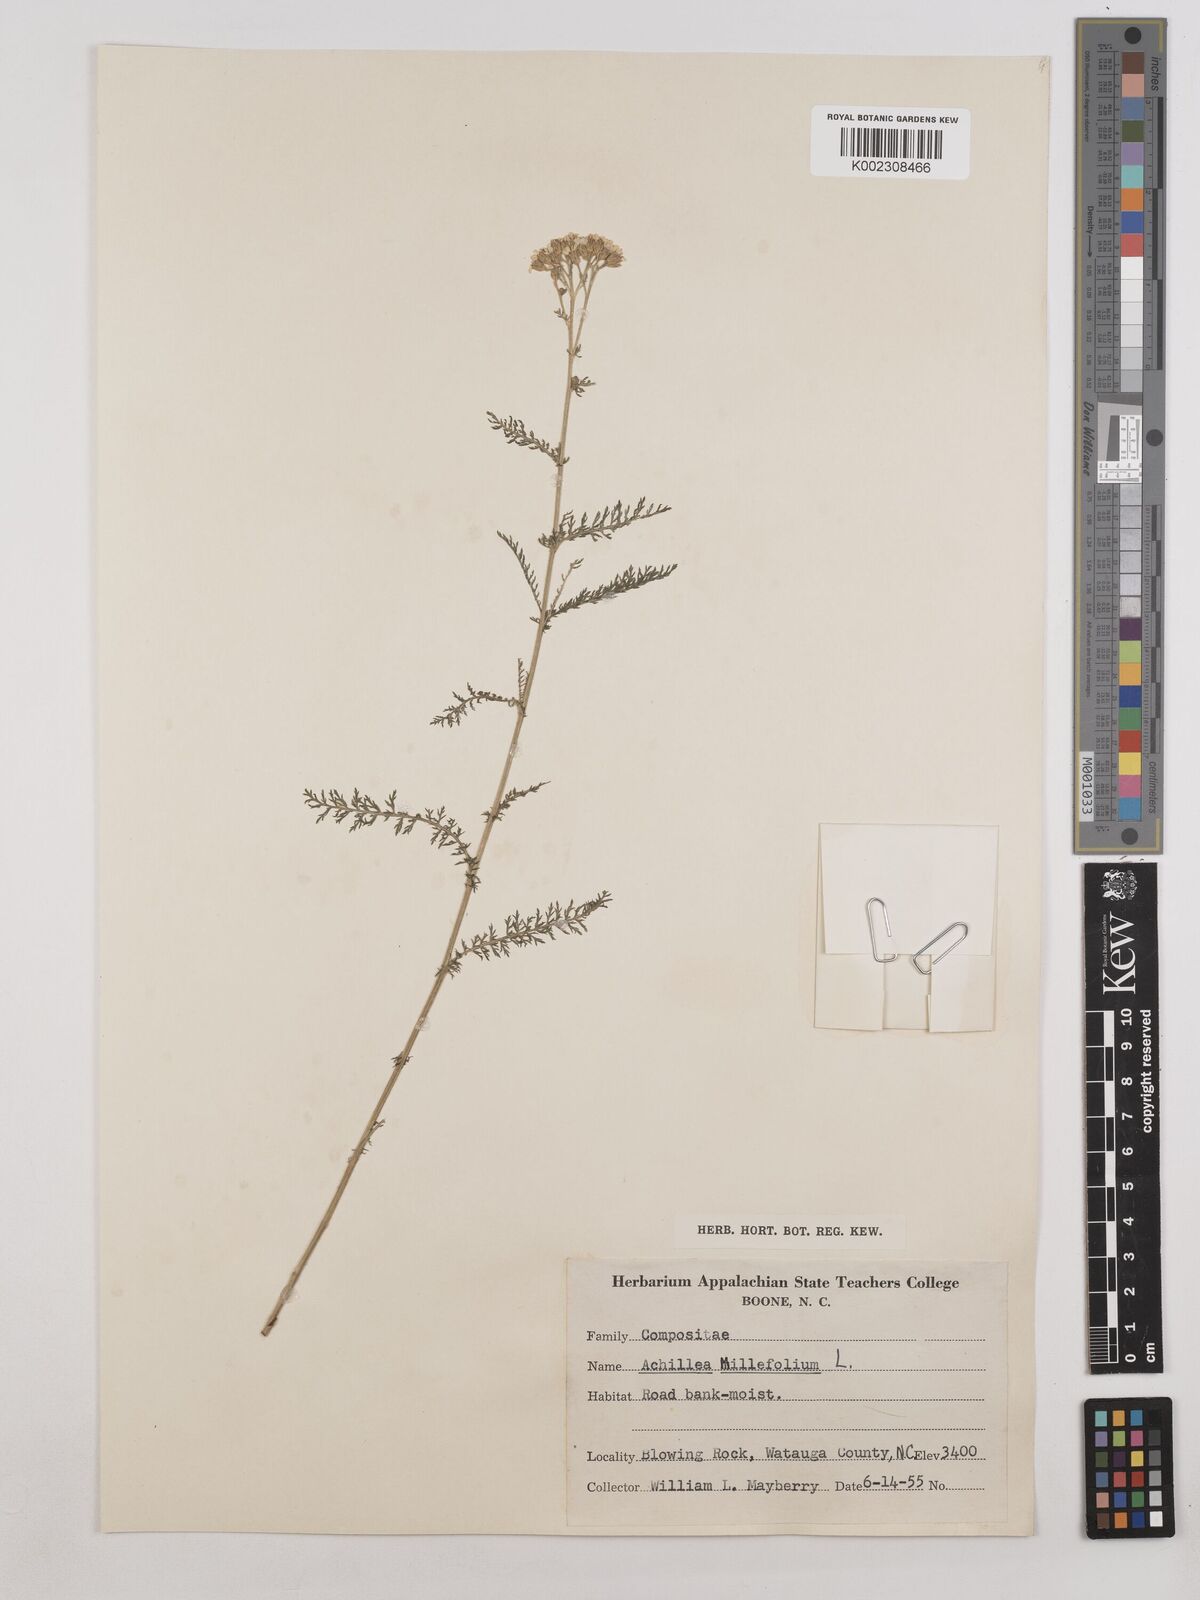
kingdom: Plantae
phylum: Tracheophyta
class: Magnoliopsida
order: Asterales
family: Asteraceae
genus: Achillea
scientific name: Achillea millefolium
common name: Yarrow
